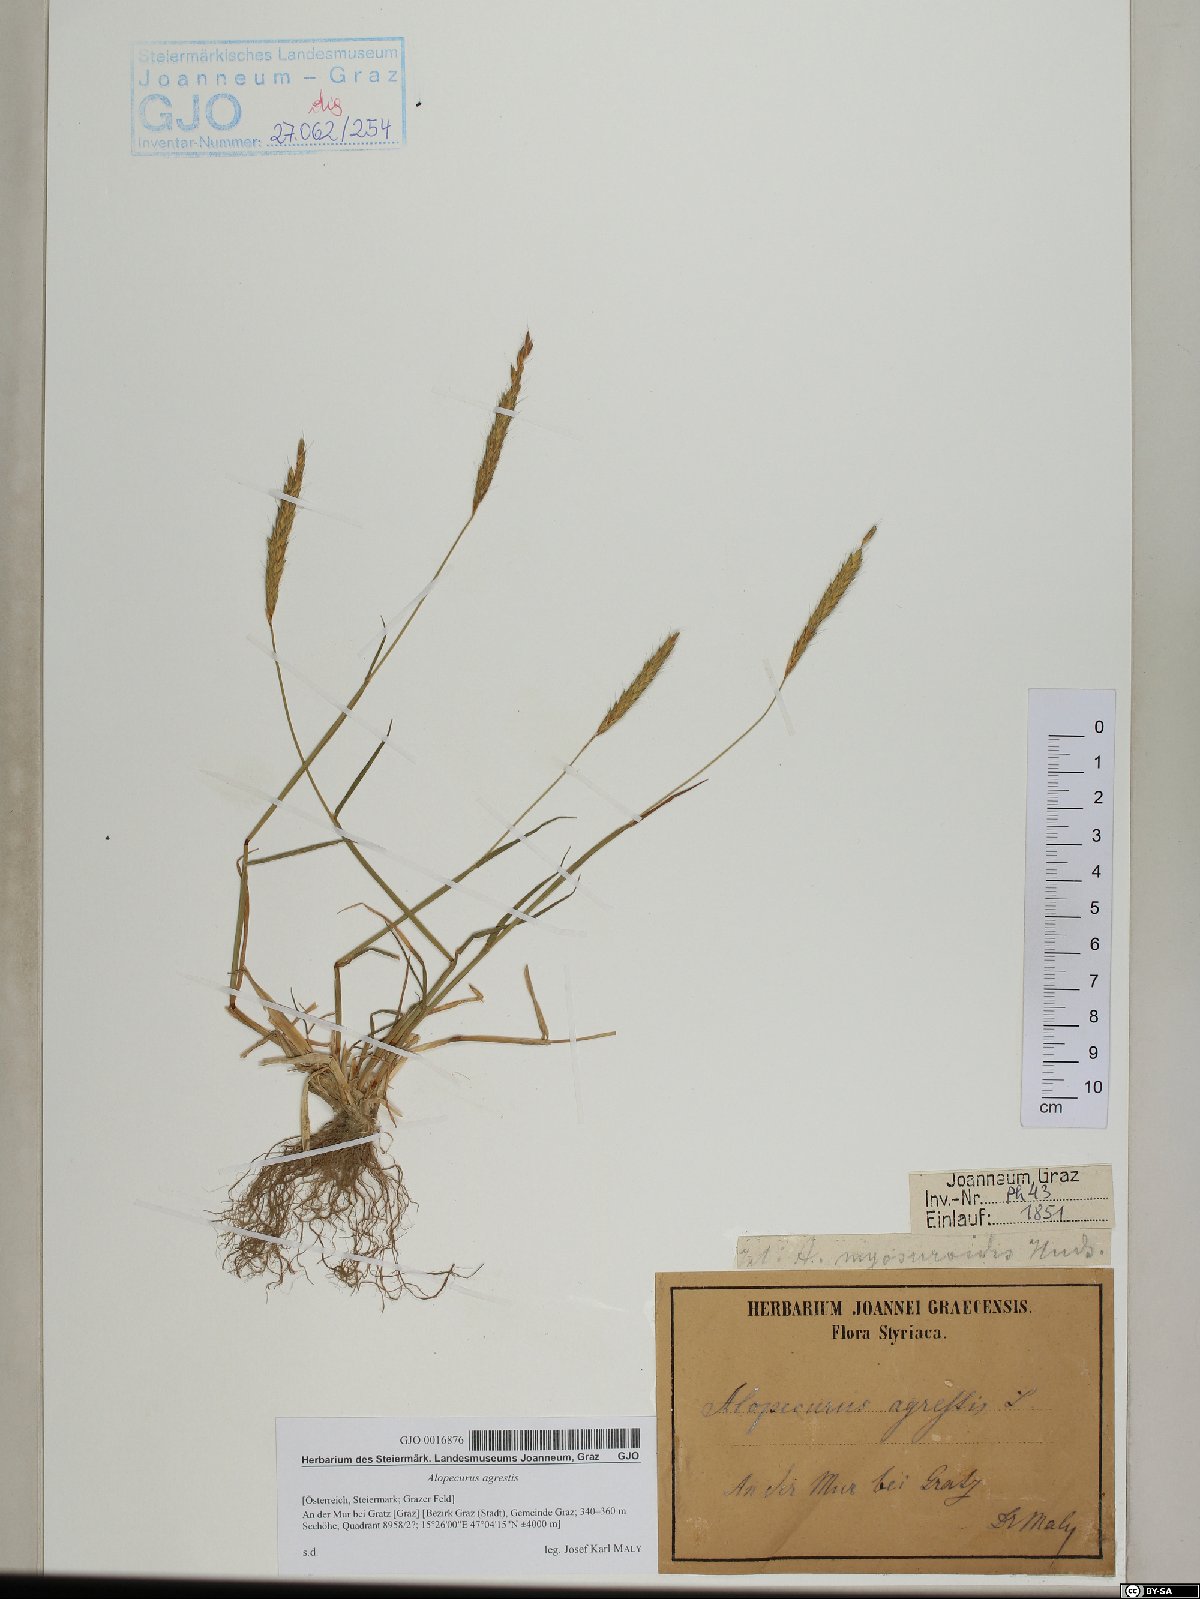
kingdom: Plantae
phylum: Tracheophyta
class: Liliopsida
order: Poales
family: Poaceae
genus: Alopecurus
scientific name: Alopecurus myosuroides
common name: Black-grass
